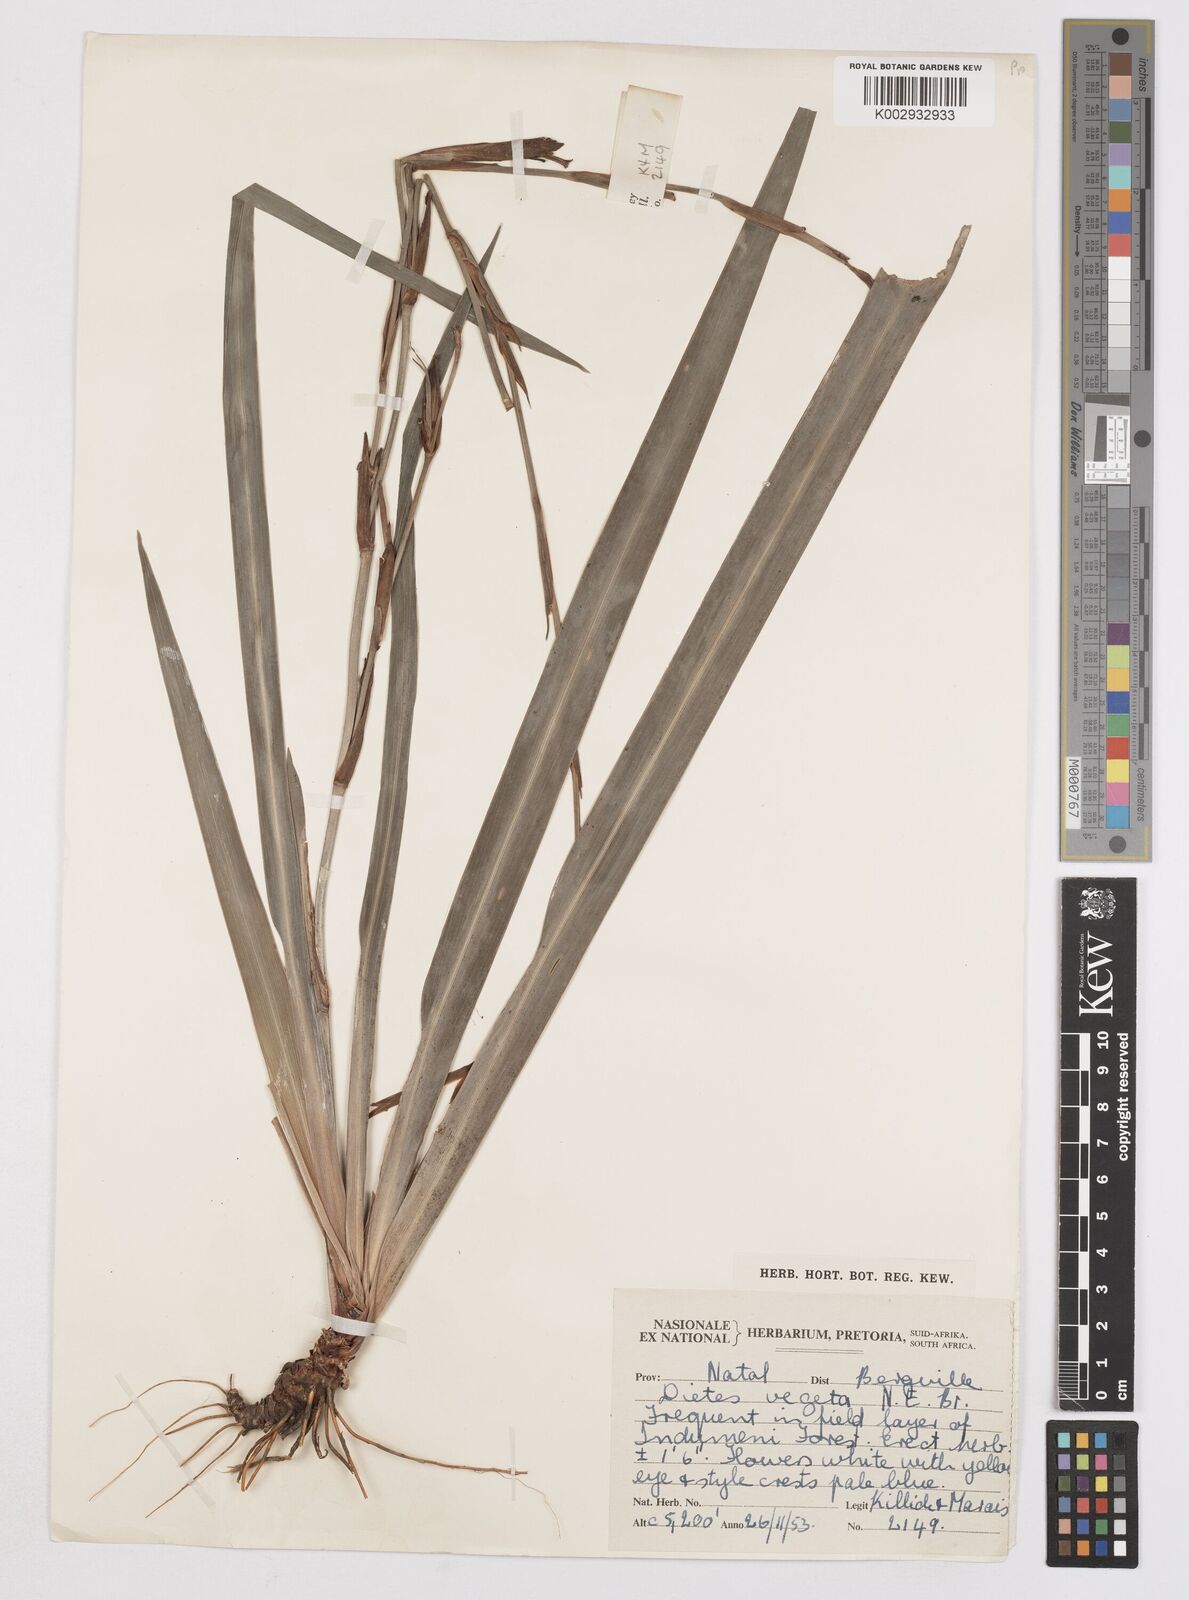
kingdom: Plantae
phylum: Tracheophyta
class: Liliopsida
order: Asparagales
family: Iridaceae
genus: Dietes
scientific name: Dietes iridioides
